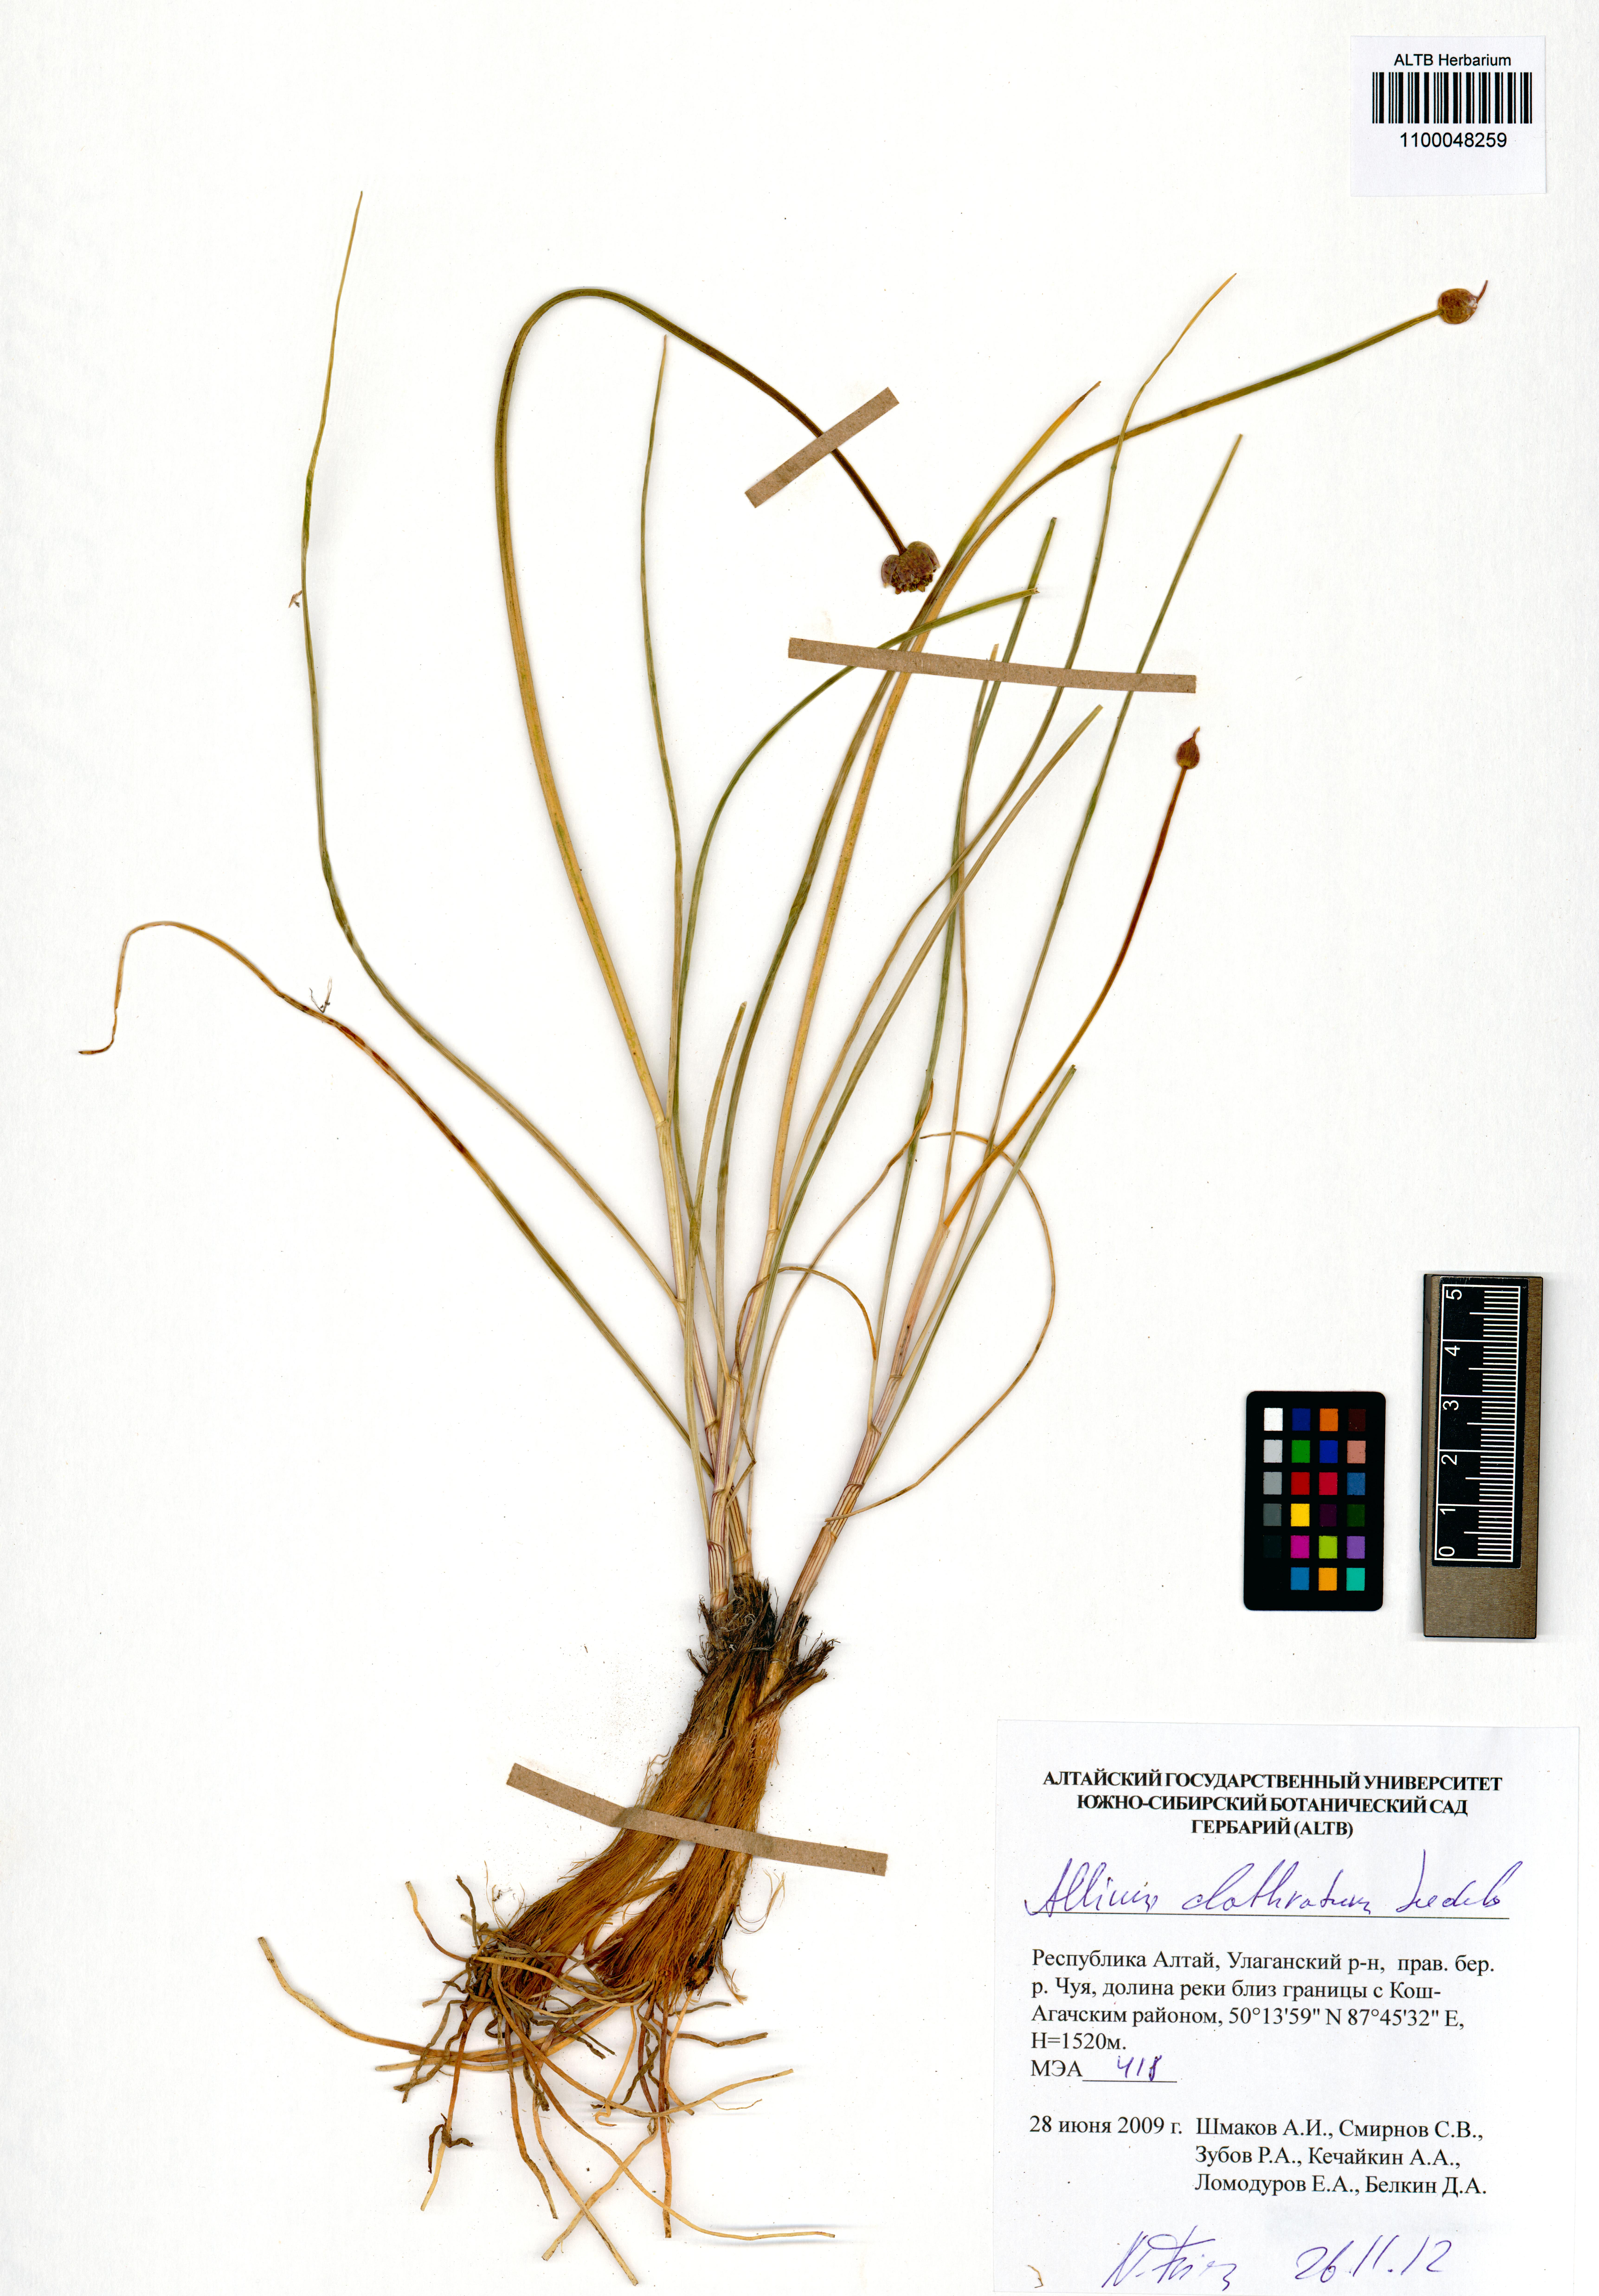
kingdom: Plantae
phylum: Tracheophyta
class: Liliopsida
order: Asparagales
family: Amaryllidaceae
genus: Allium
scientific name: Allium clathratum
